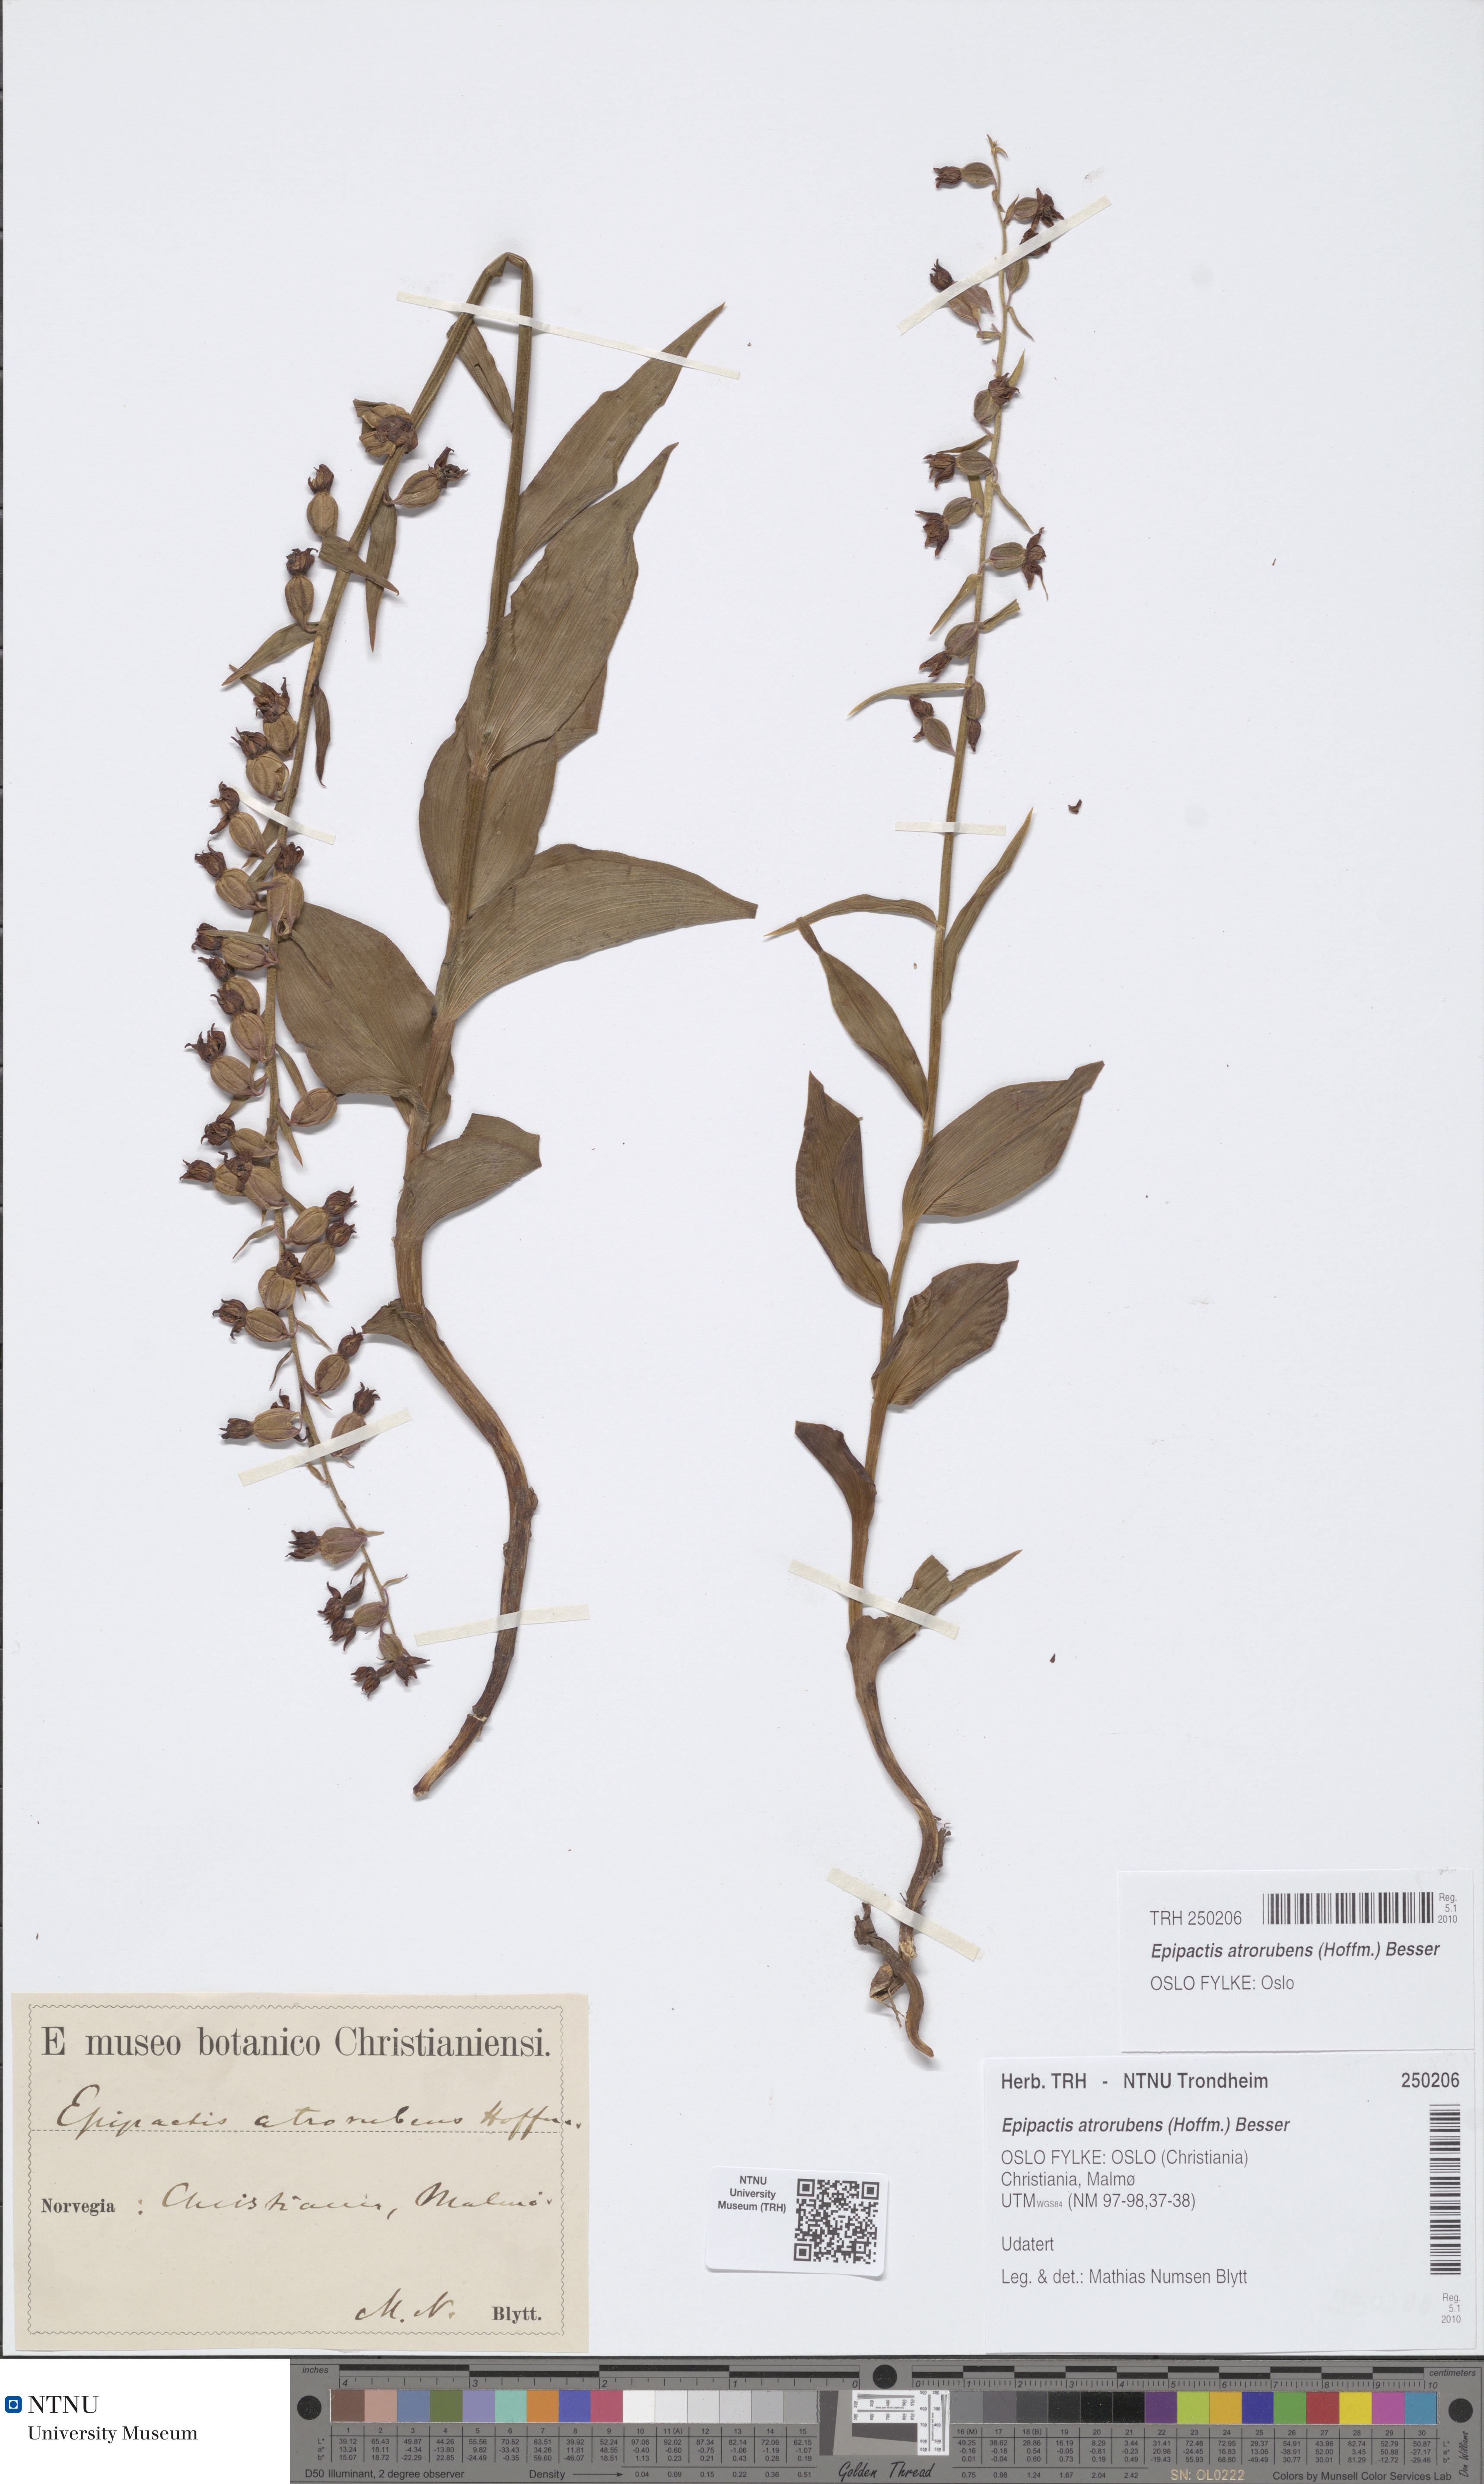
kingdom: Plantae
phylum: Tracheophyta
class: Liliopsida
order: Asparagales
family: Orchidaceae
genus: Epipactis
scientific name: Epipactis atrorubens
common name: Dark-red helleborine
